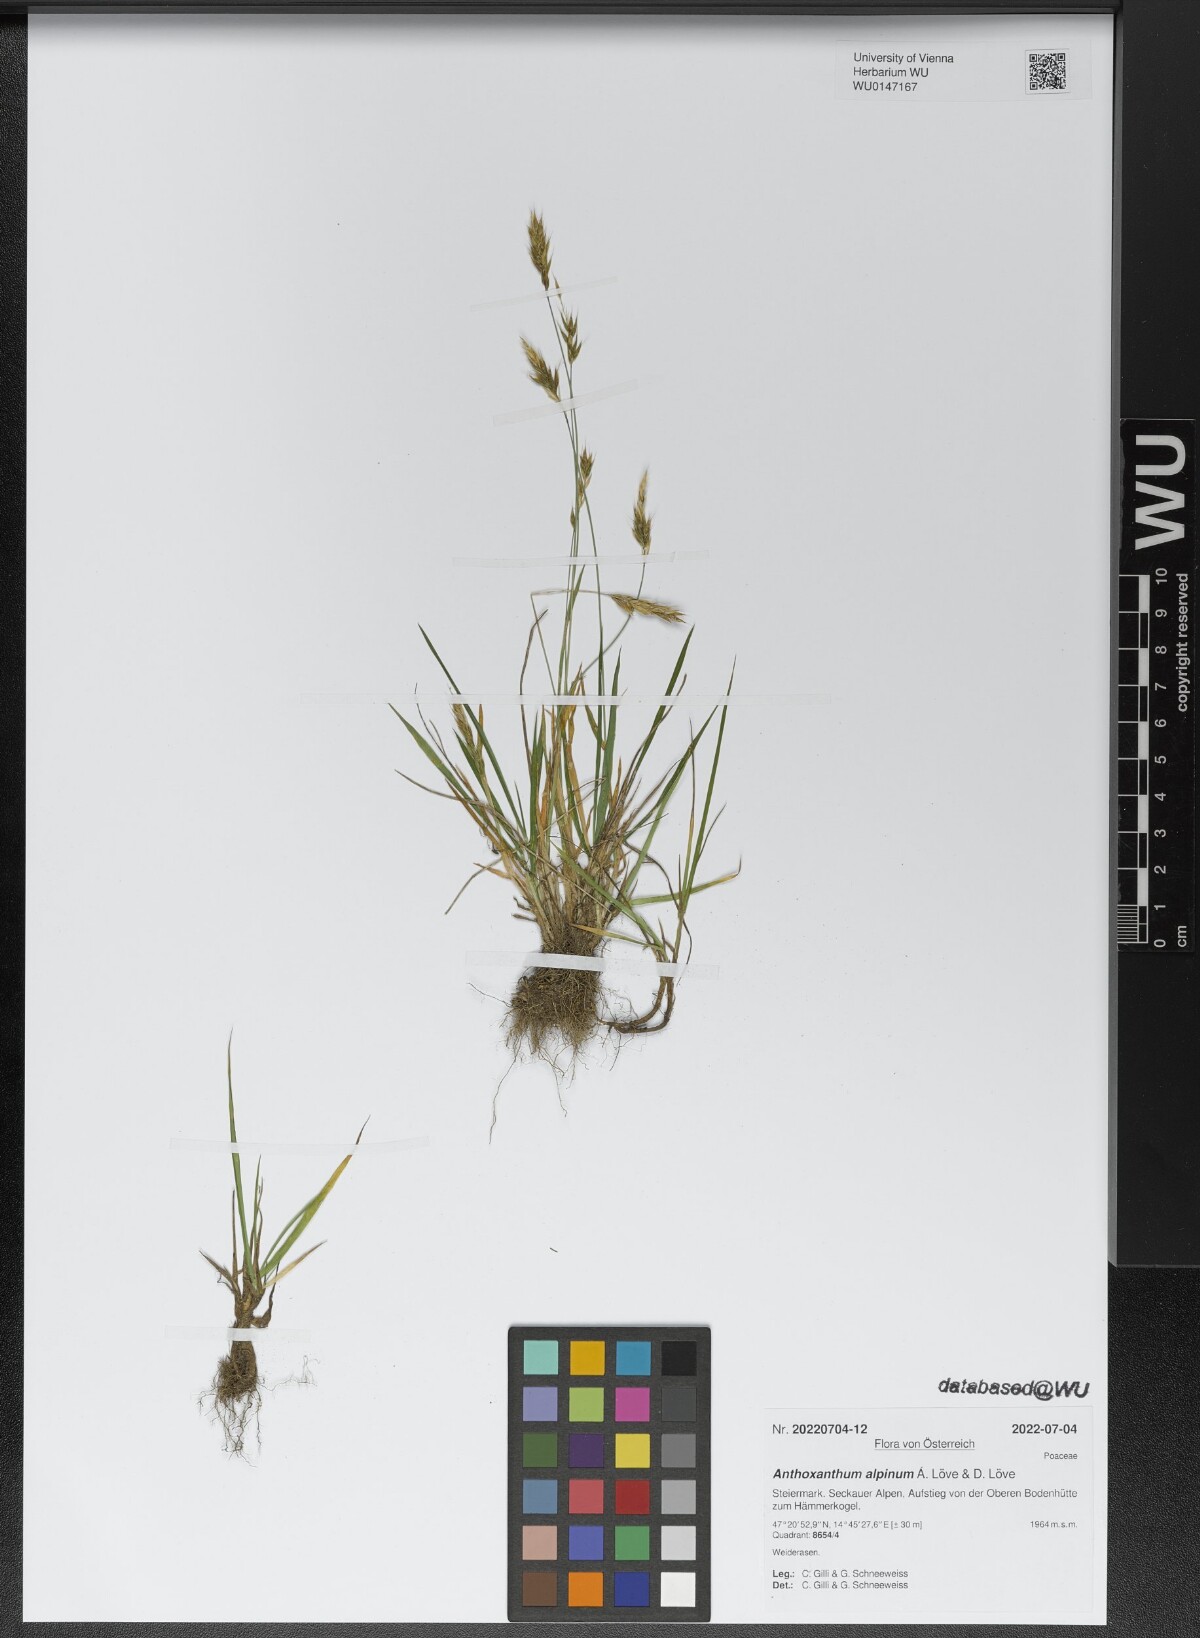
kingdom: Plantae
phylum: Tracheophyta
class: Liliopsida
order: Poales
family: Poaceae
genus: Anthoxanthum
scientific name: Anthoxanthum nipponicum
